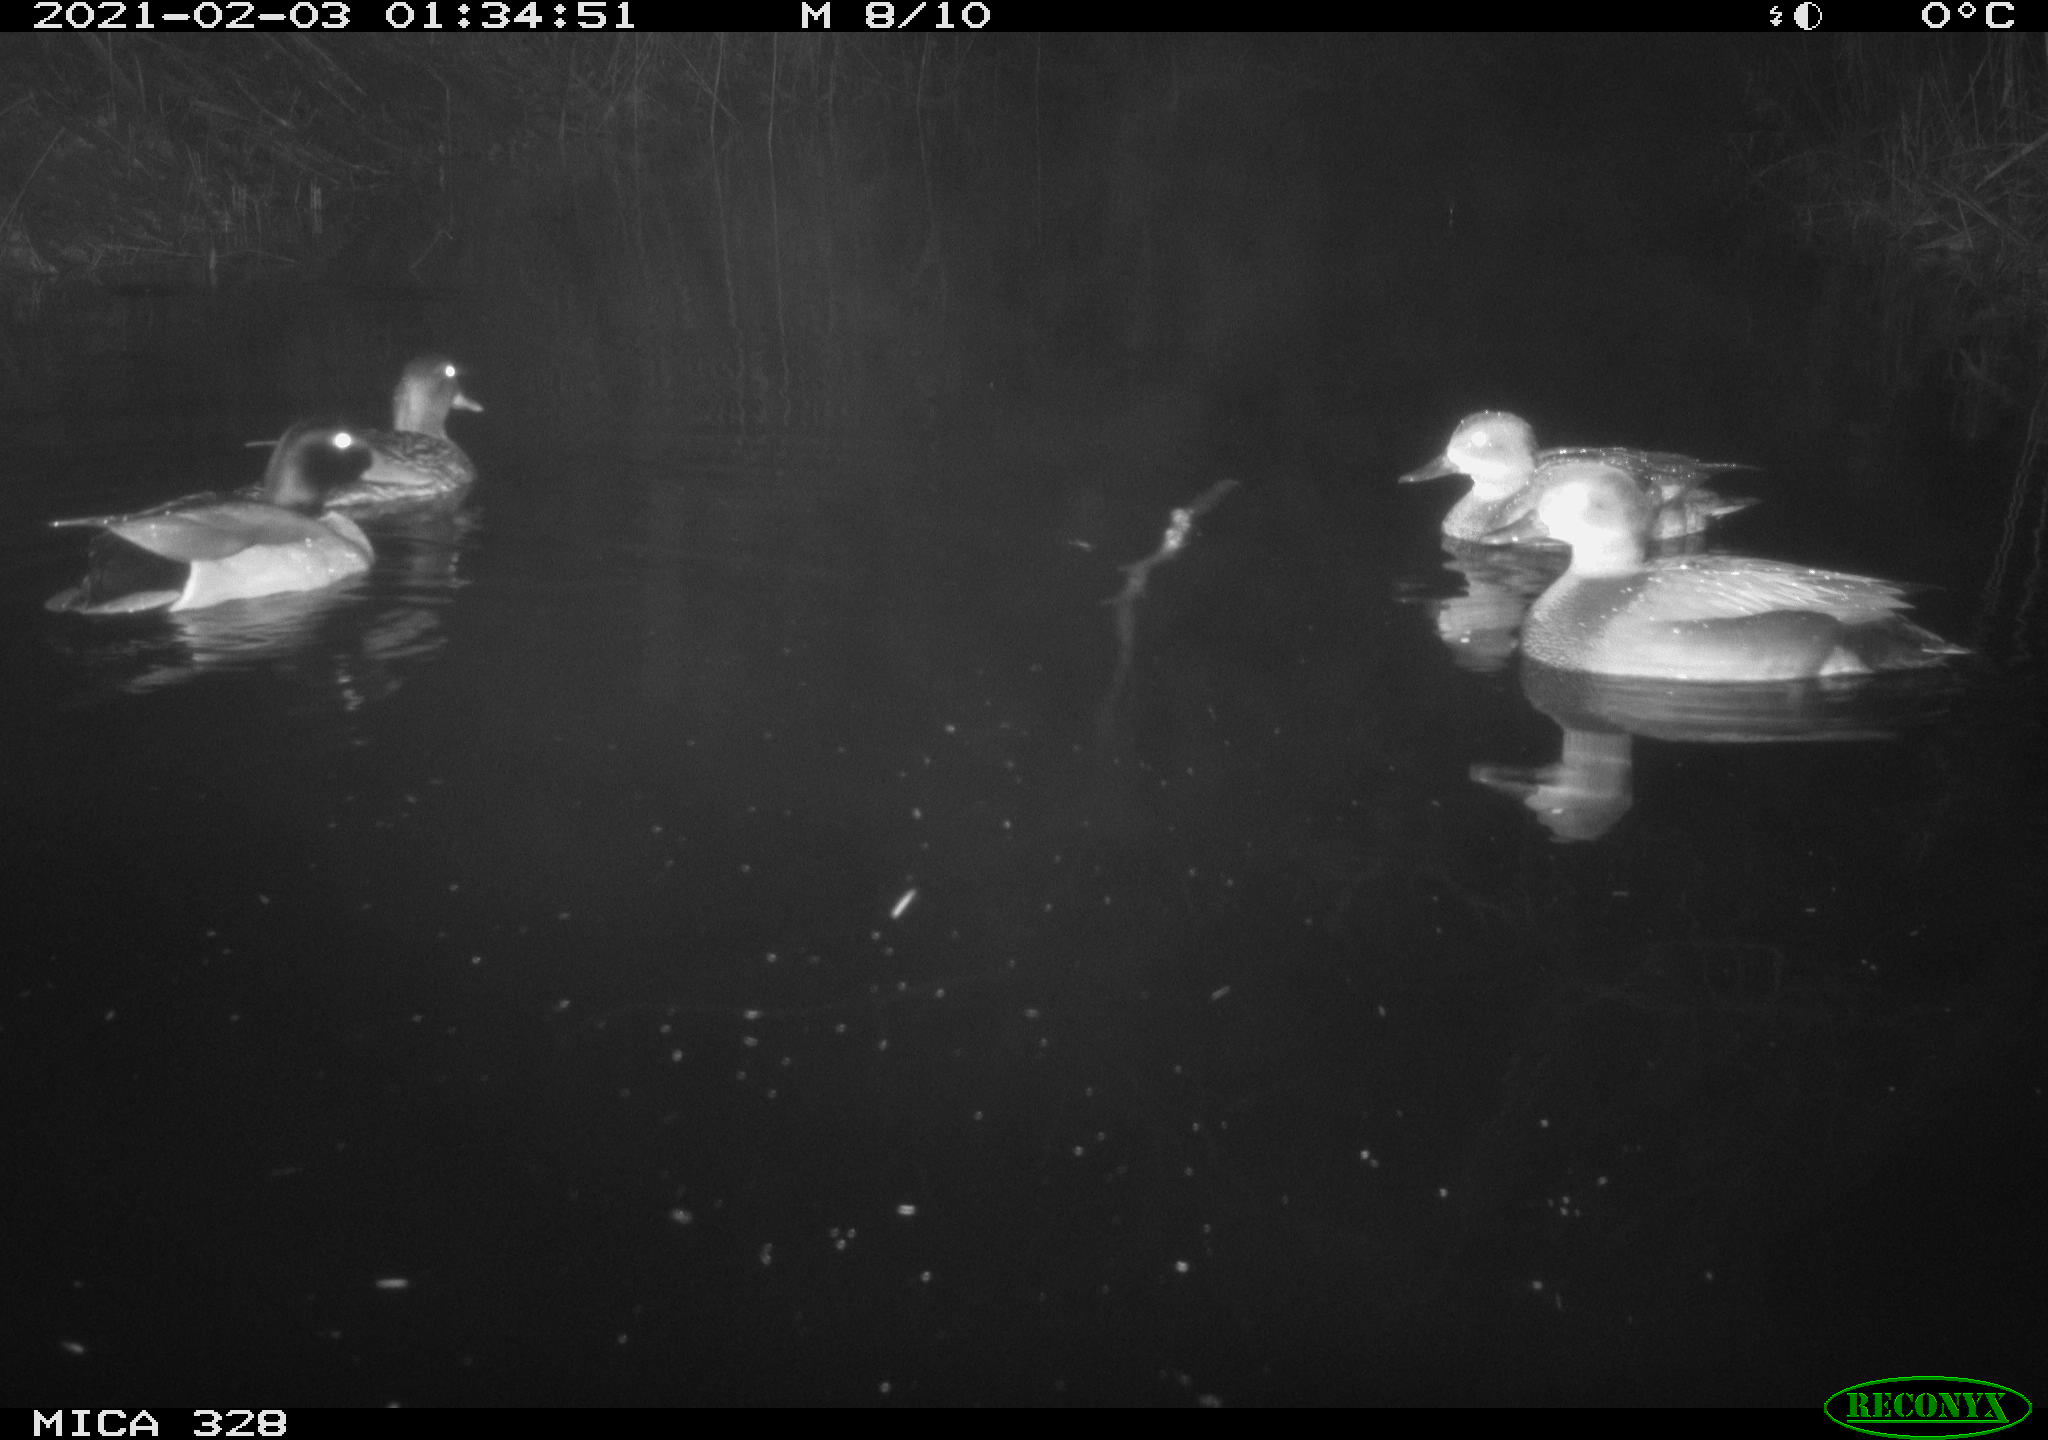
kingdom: Animalia
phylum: Chordata
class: Aves
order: Anseriformes
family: Anatidae
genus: Anas
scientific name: Anas platyrhynchos
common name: Mallard
